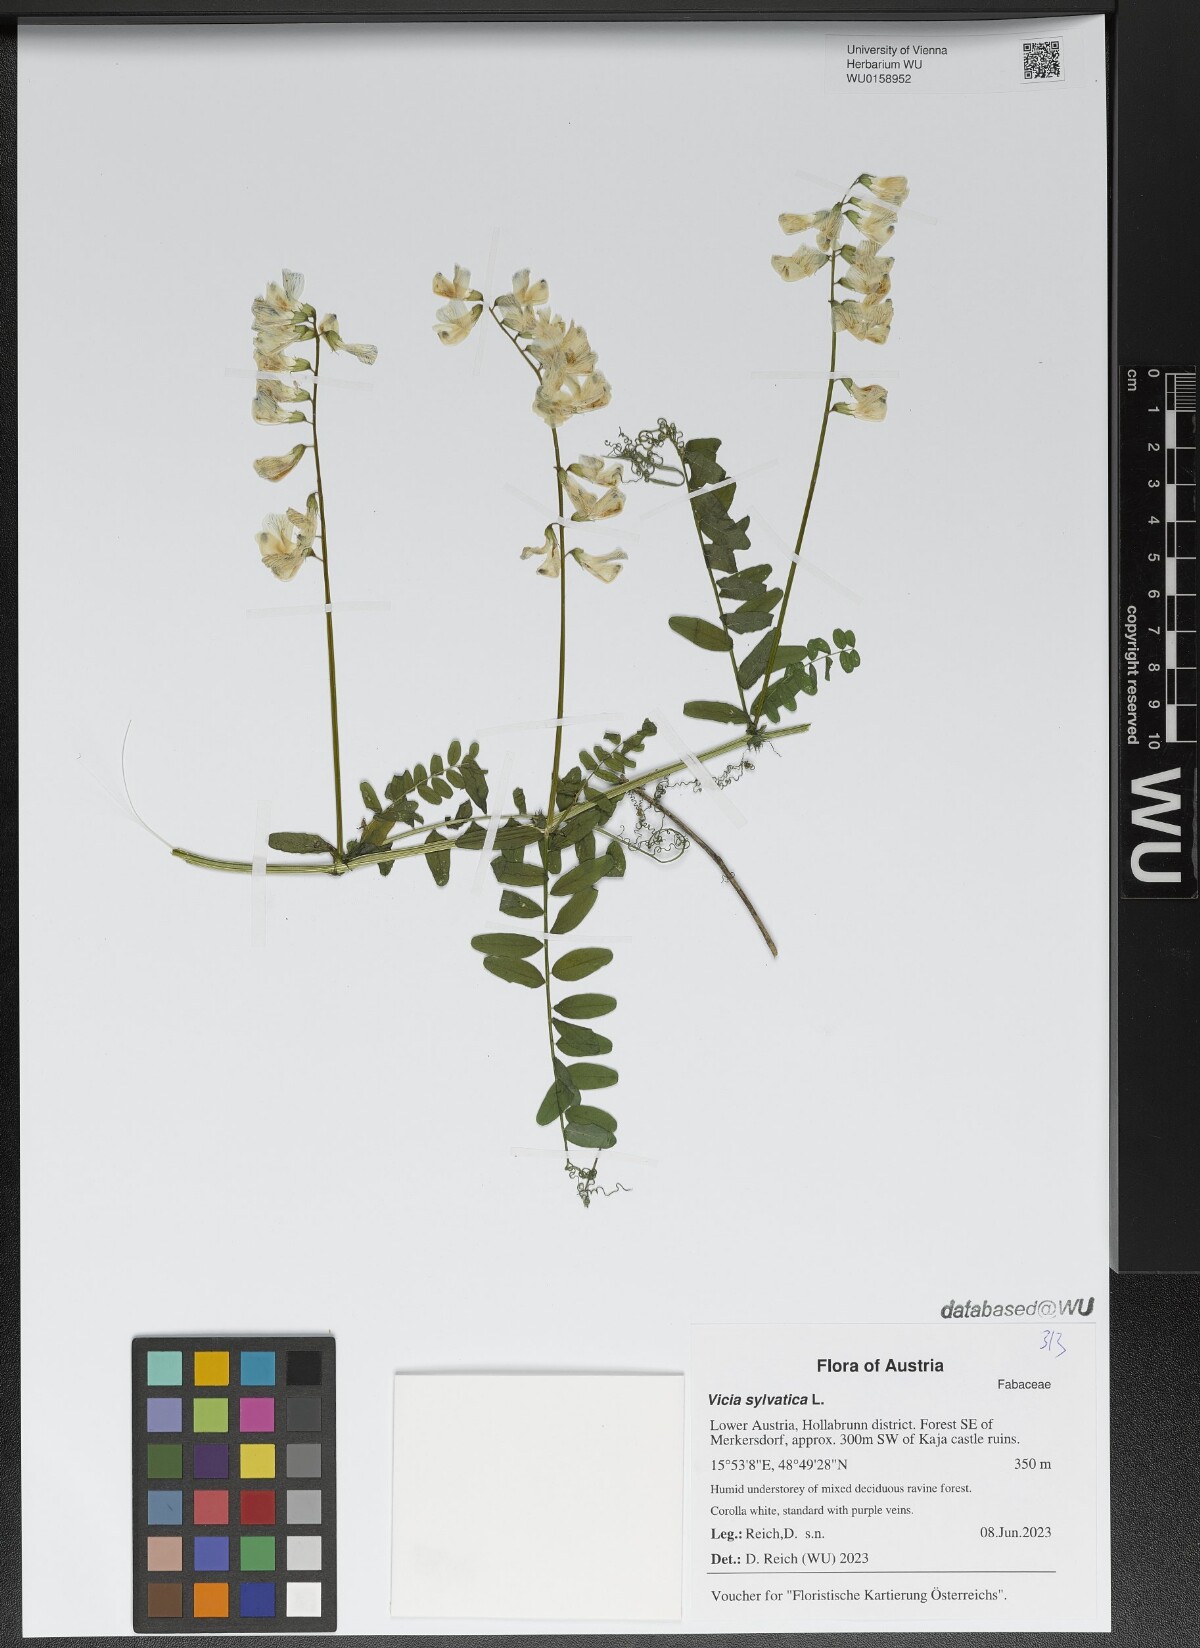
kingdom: Plantae
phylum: Tracheophyta
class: Magnoliopsida
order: Fabales
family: Fabaceae
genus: Vicia
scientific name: Vicia sylvatica
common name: Wood vetch
